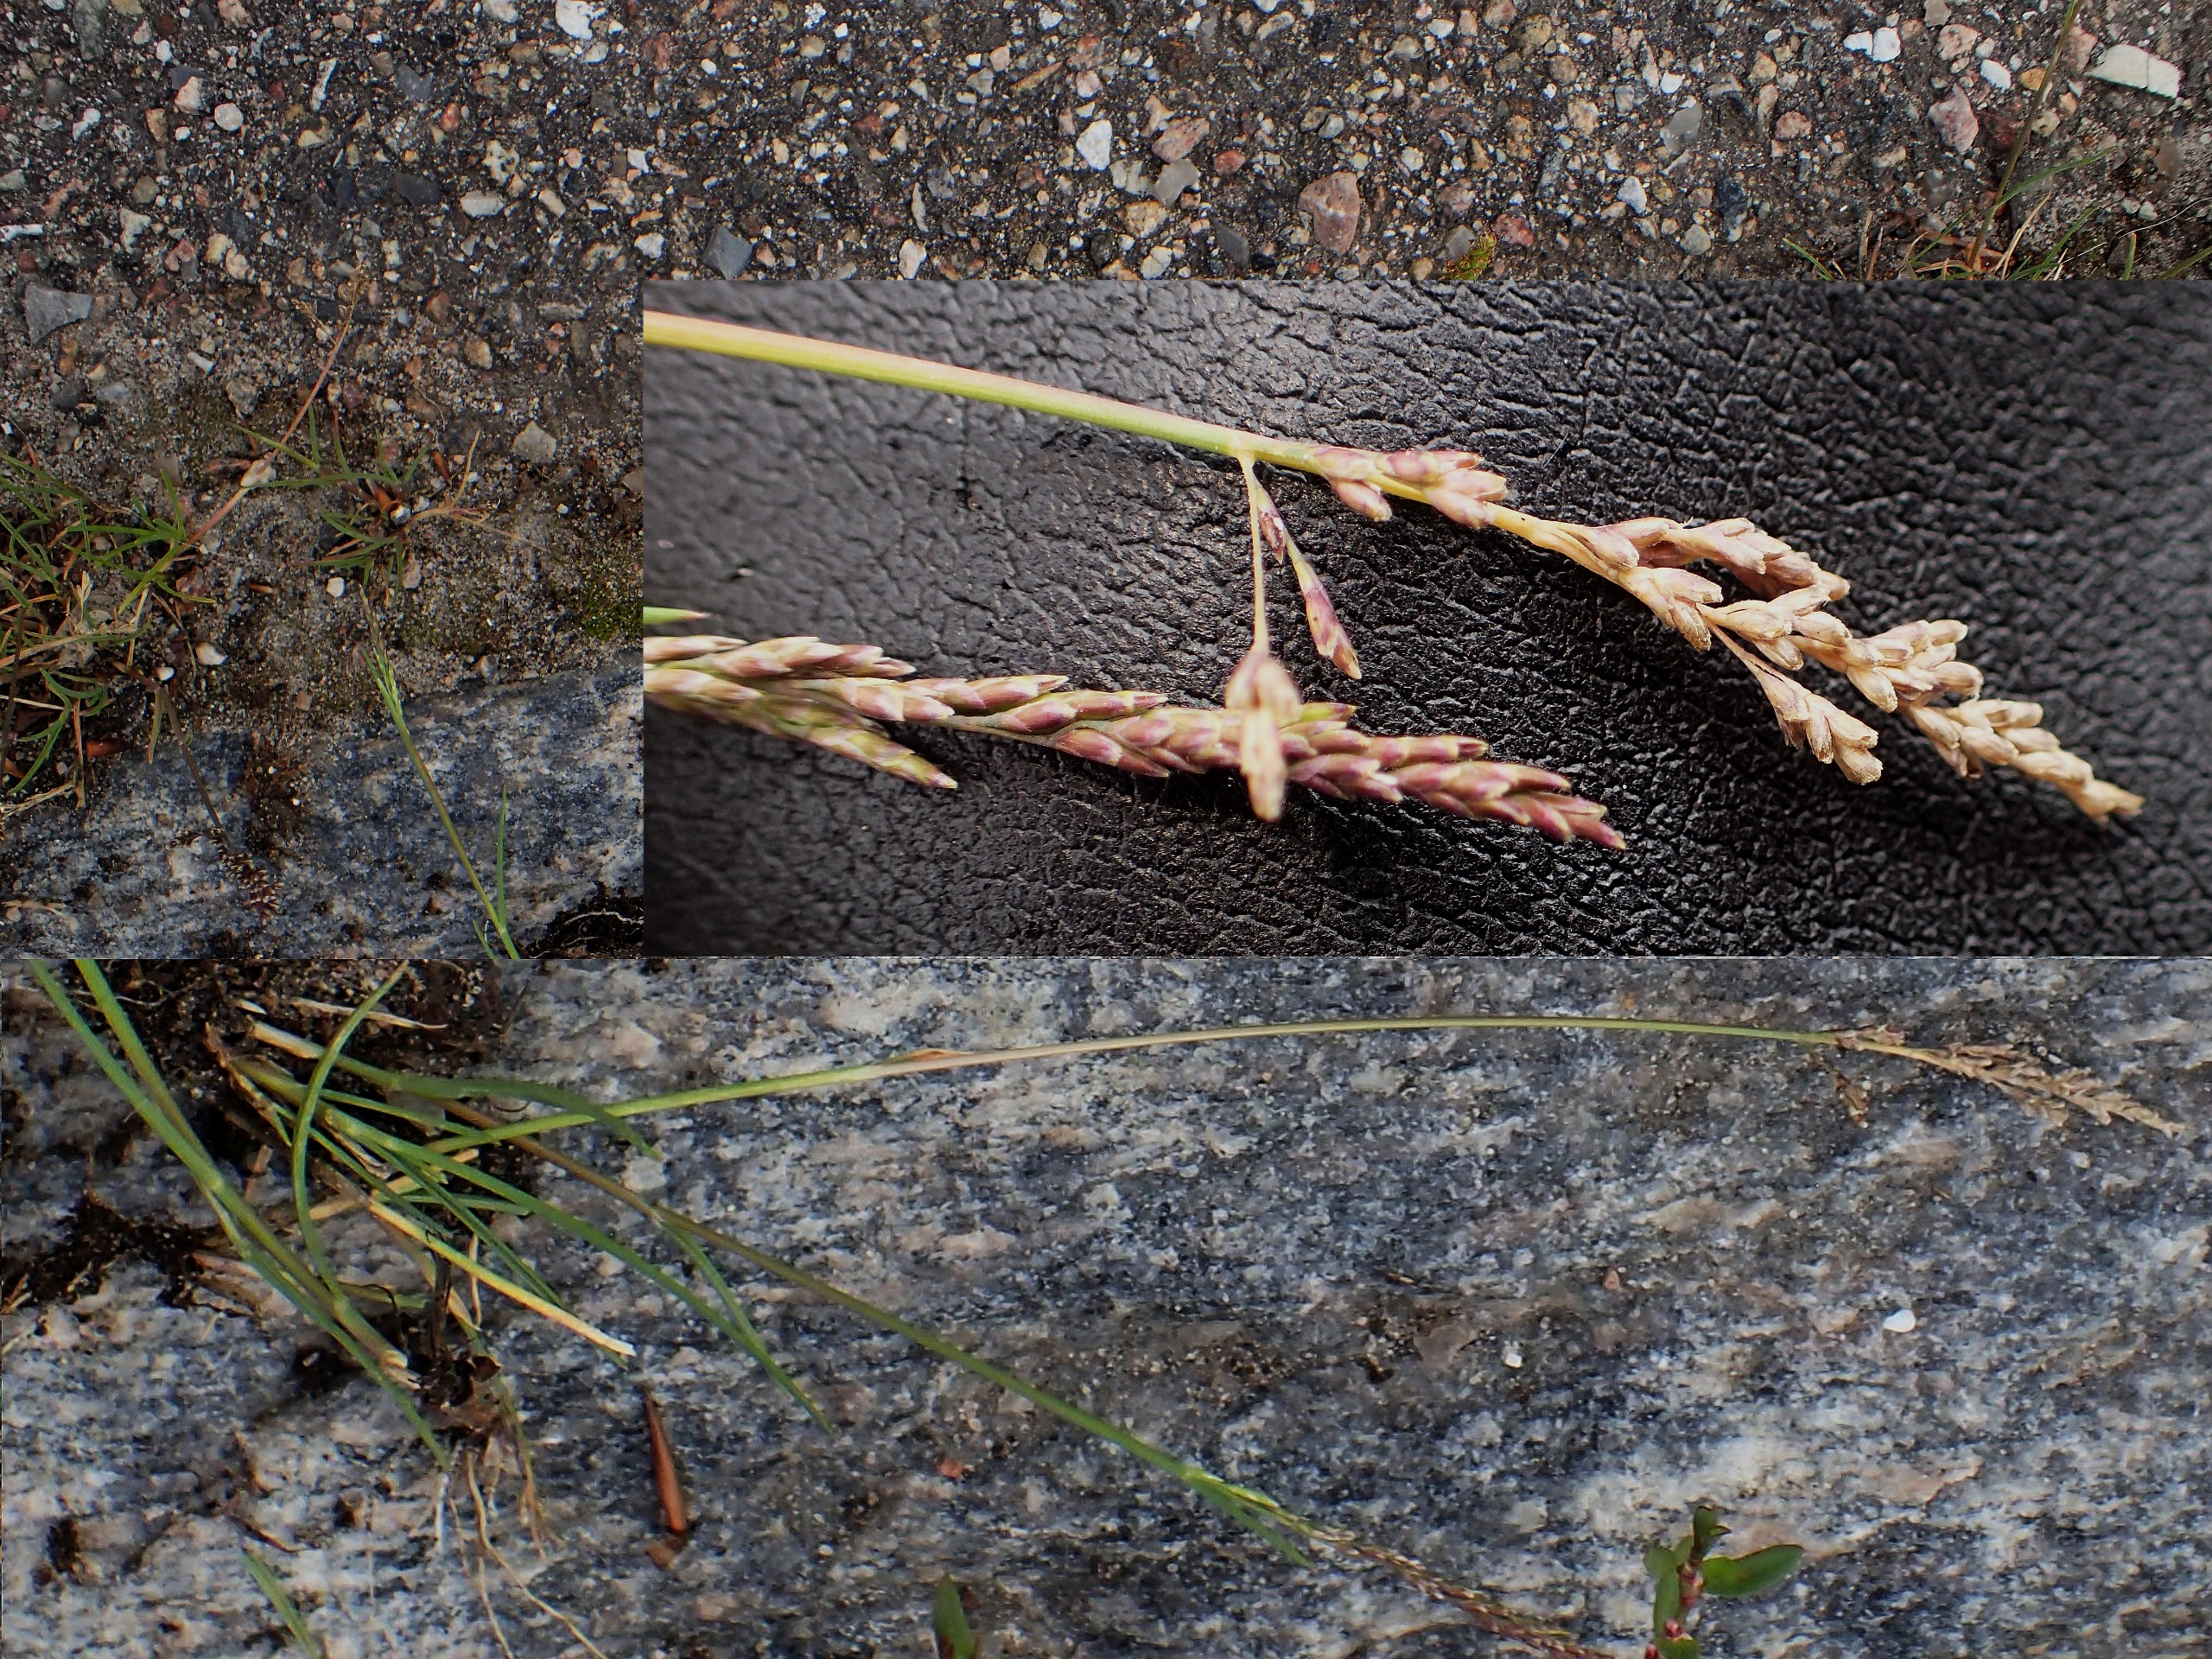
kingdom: Plantae
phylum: Tracheophyta
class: Liliopsida
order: Poales
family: Poaceae
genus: Puccinellia
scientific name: Puccinellia distans
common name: Udspærret annelgræs
